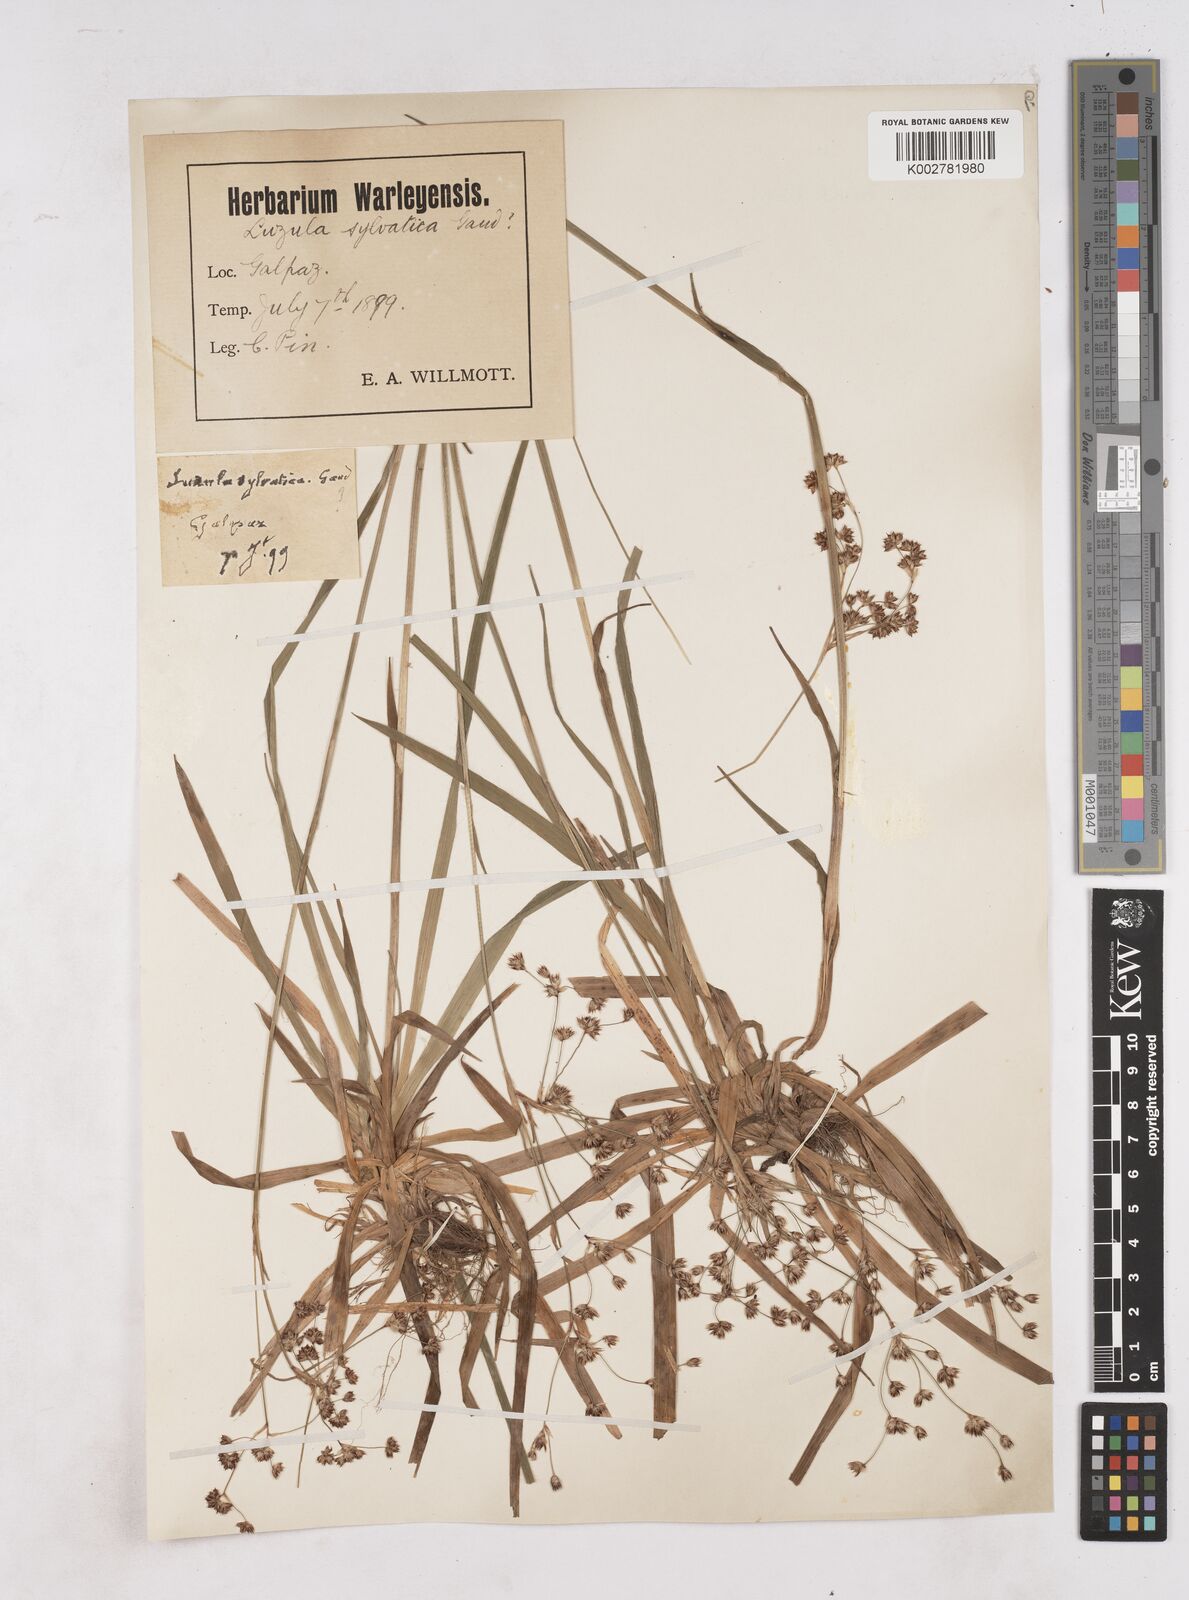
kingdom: Plantae
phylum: Tracheophyta
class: Liliopsida
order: Poales
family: Juncaceae
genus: Luzula
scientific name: Luzula sylvatica
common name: Great wood-rush
